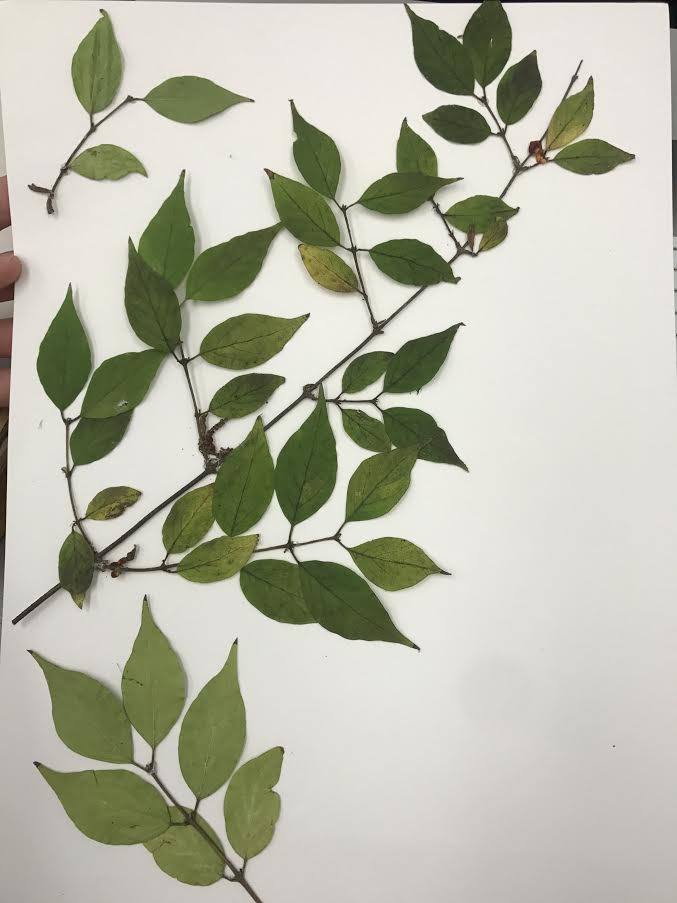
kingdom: Plantae
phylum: Tracheophyta
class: Magnoliopsida
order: Dipsacales
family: Caprifoliaceae
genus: Lonicera
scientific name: Lonicera maackii
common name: Amur honeysuckle
